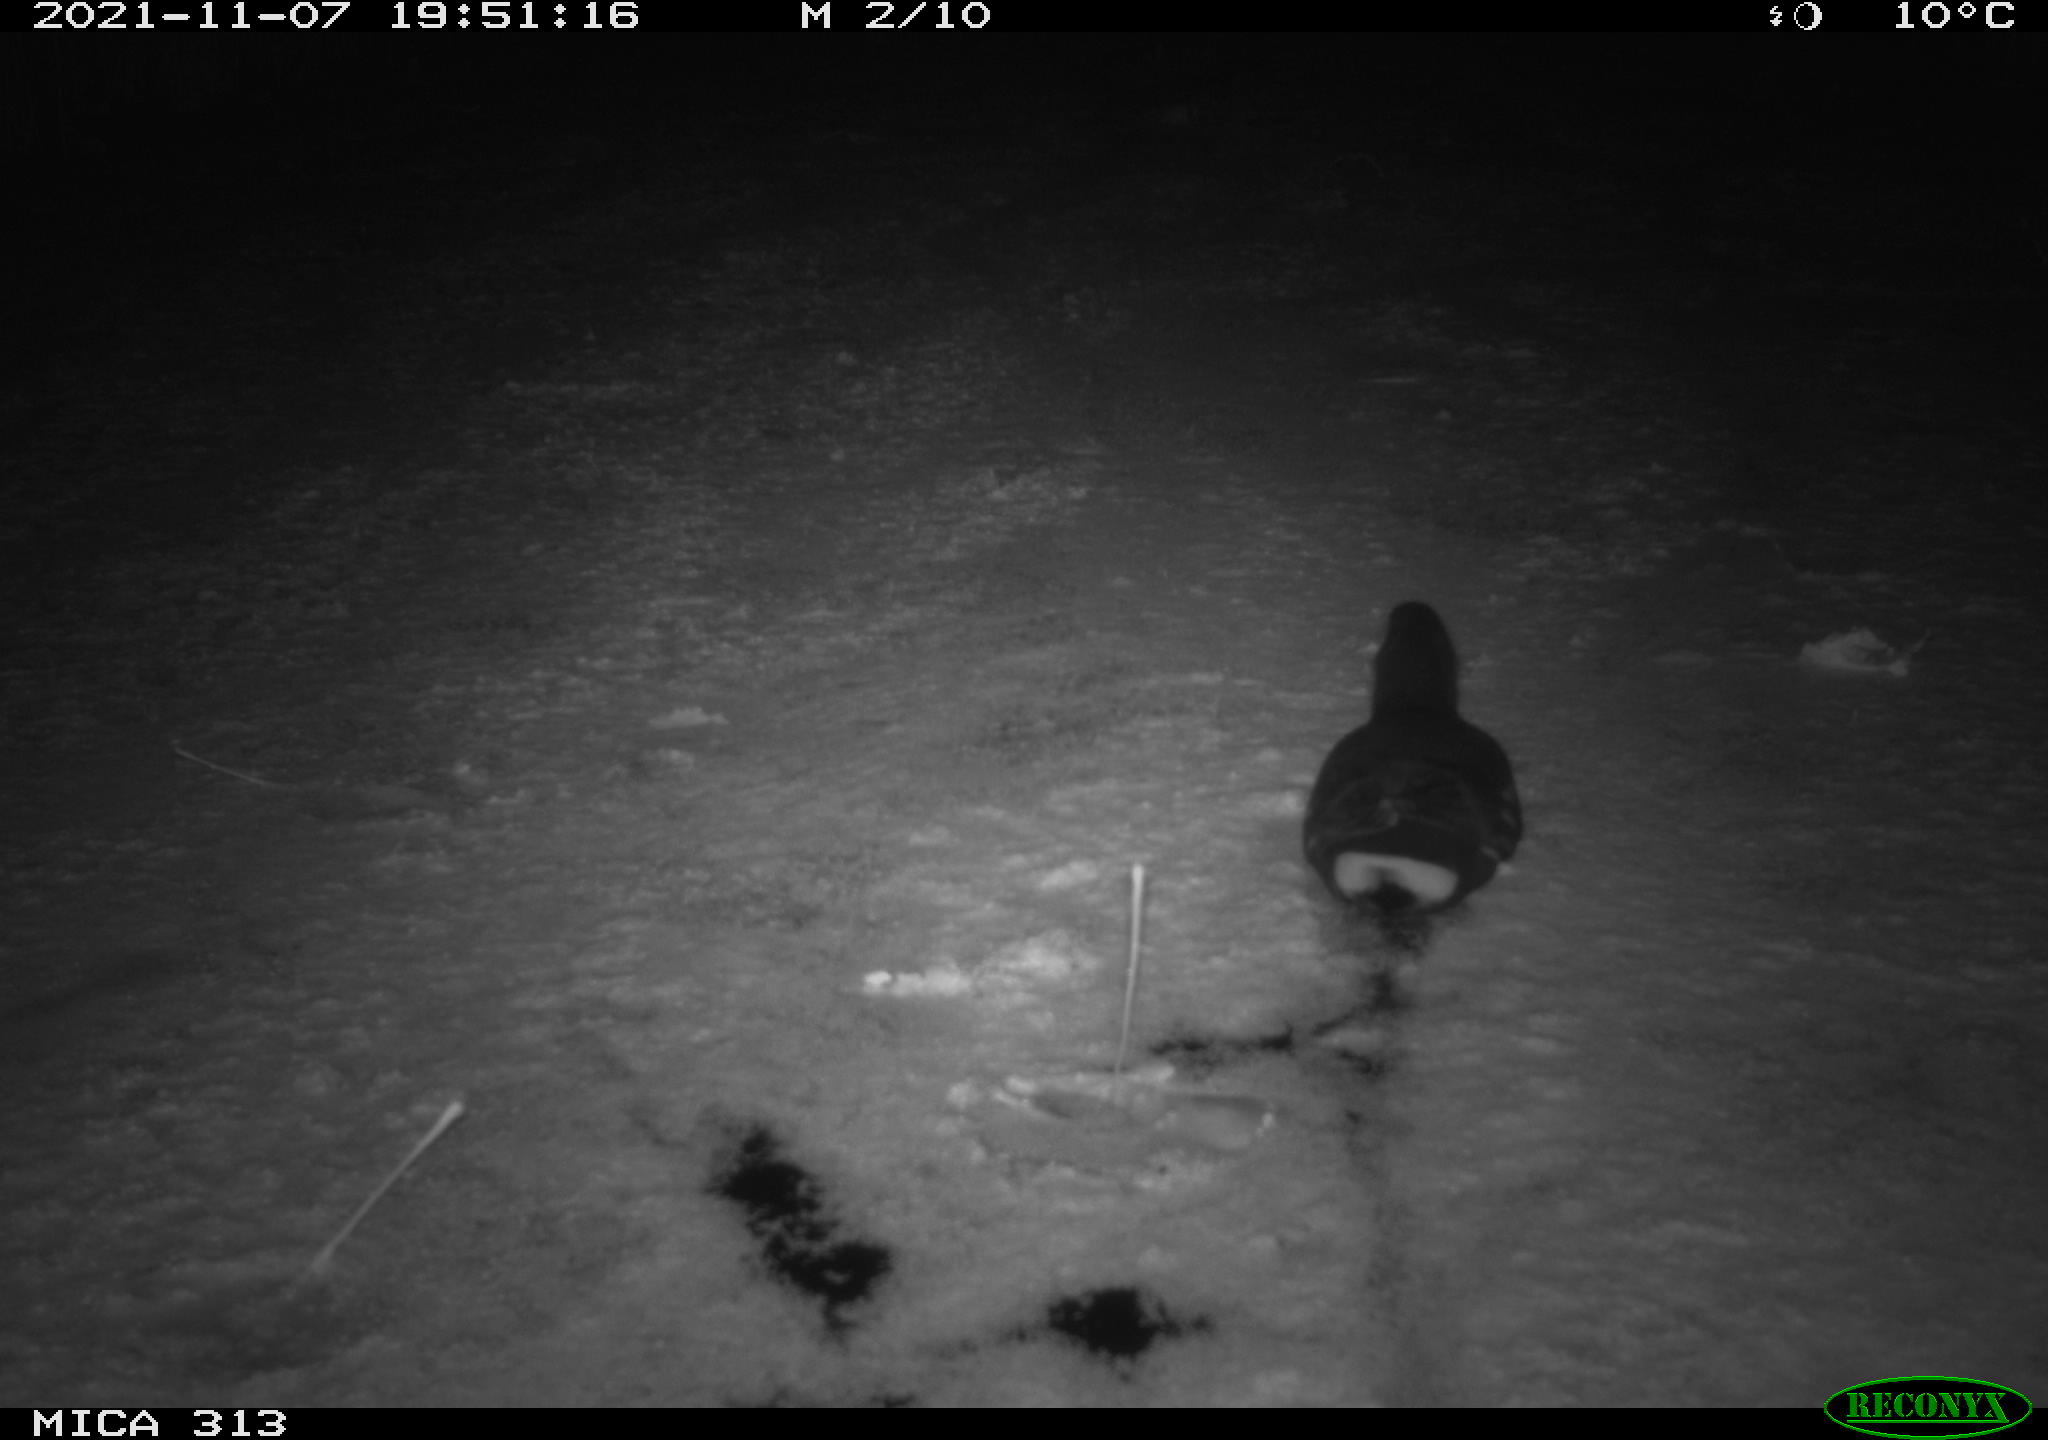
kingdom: Animalia
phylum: Chordata
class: Aves
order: Gruiformes
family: Rallidae
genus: Gallinula
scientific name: Gallinula chloropus
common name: Common moorhen
